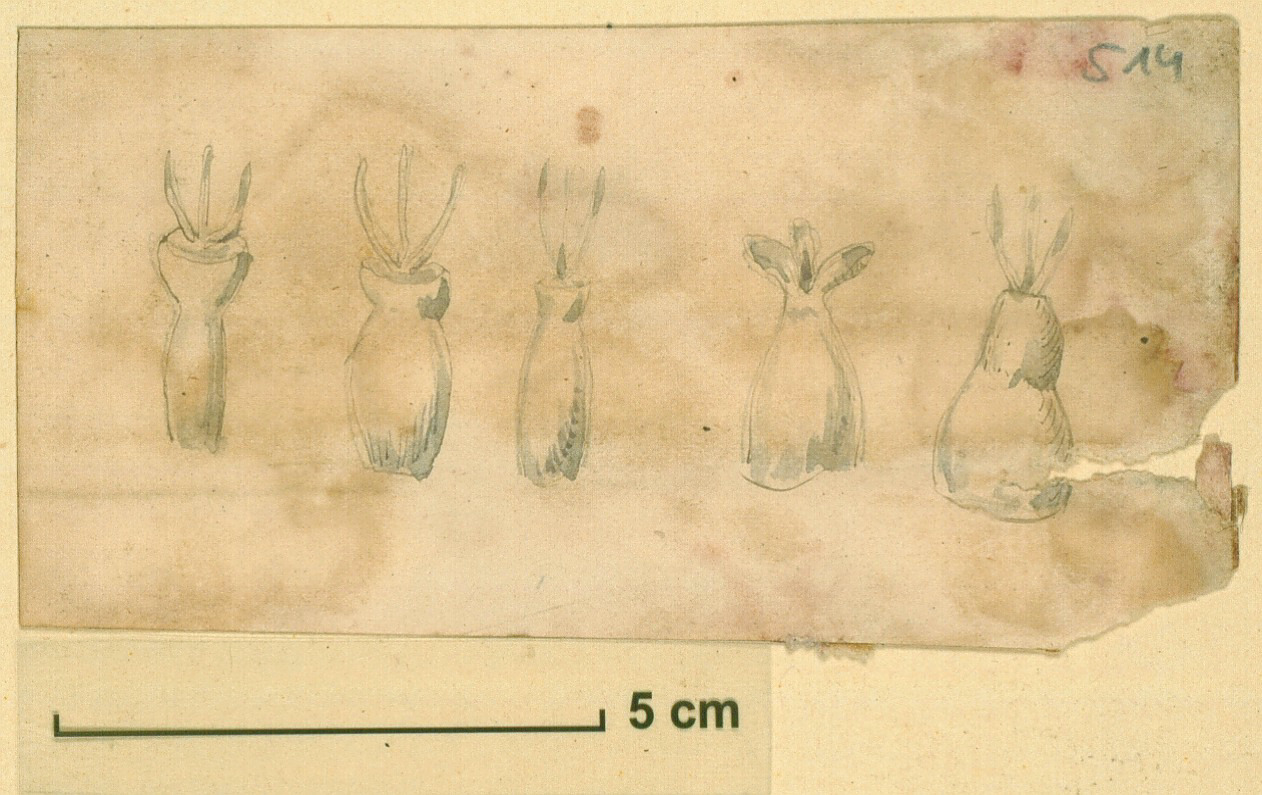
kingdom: Plantae
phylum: Tracheophyta
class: Magnoliopsida
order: Caryophyllales
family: Amaranthaceae
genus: Suaeda
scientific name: Suaeda vermiculata
